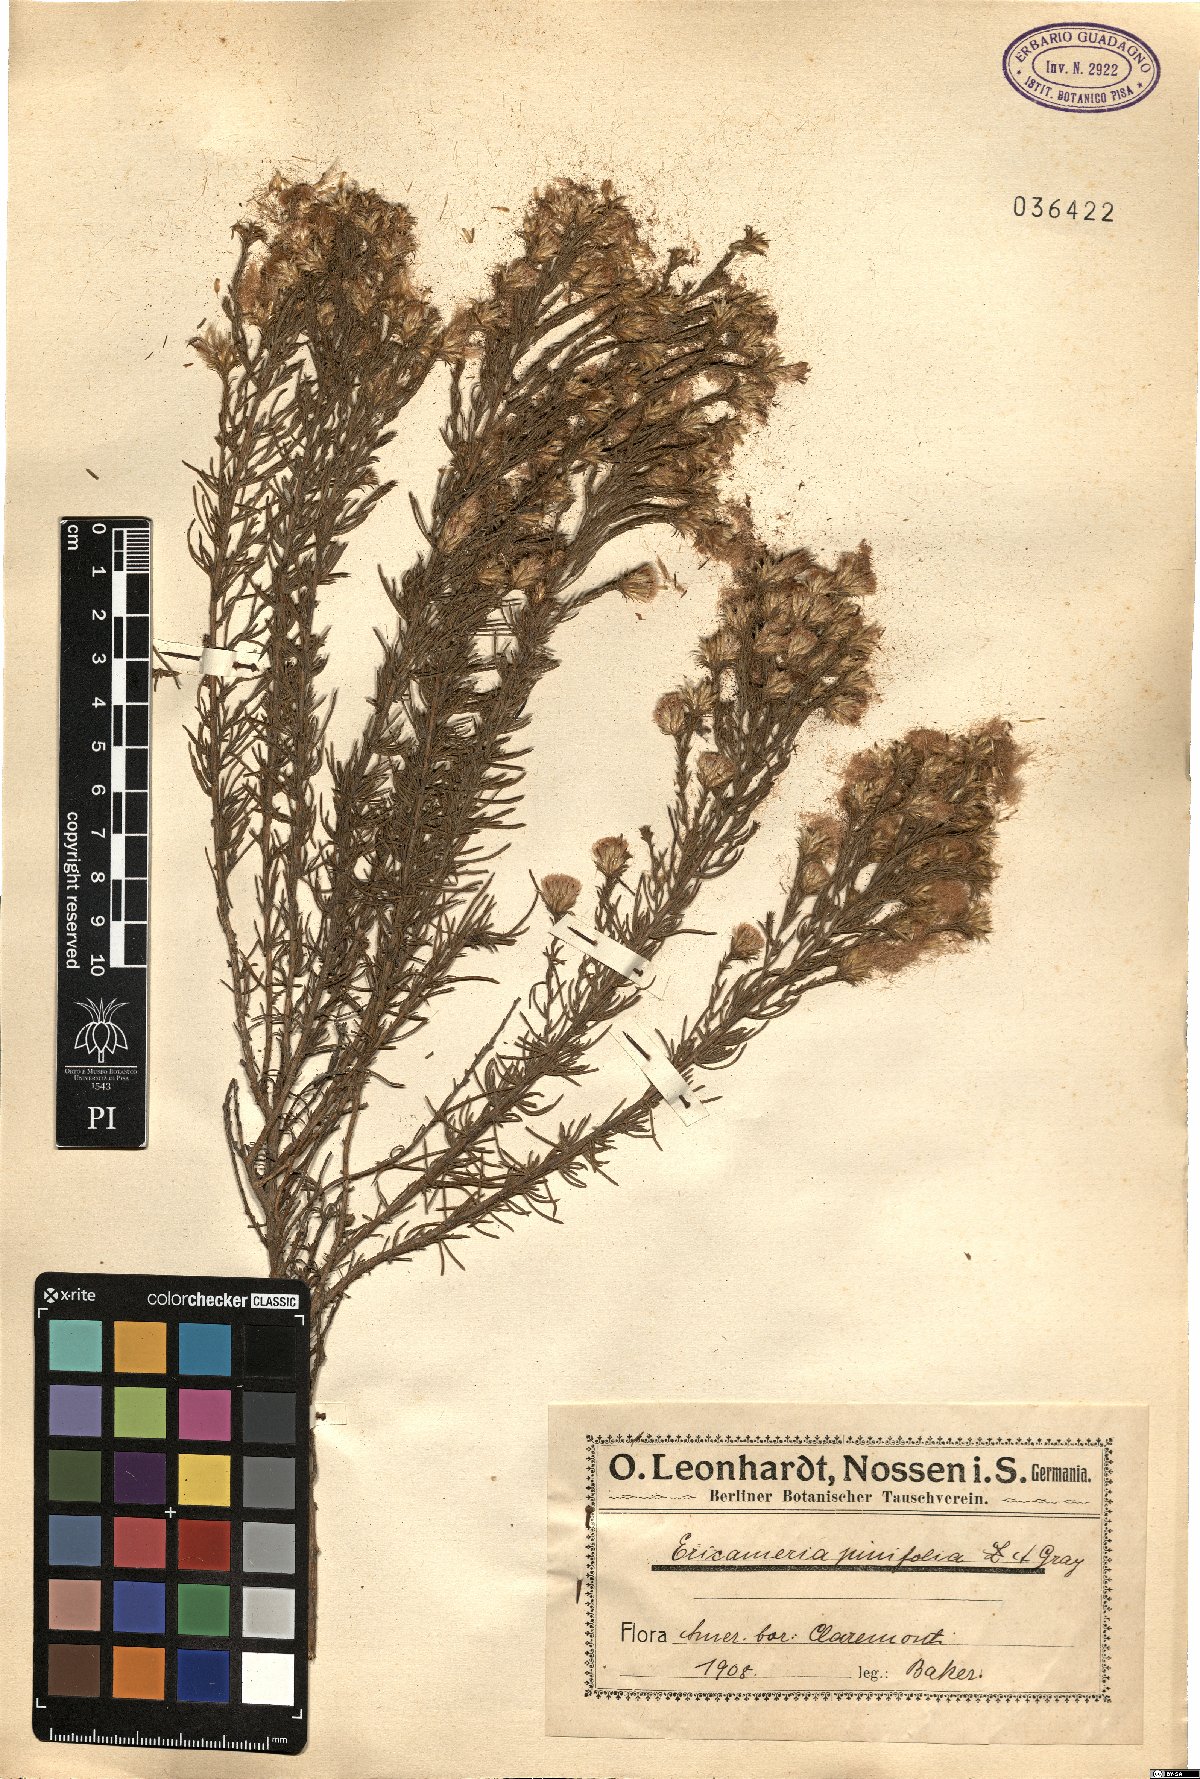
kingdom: Plantae
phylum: Tracheophyta
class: Magnoliopsida
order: Asterales
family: Asteraceae
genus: Ericameria
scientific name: Ericameria pinifolia
